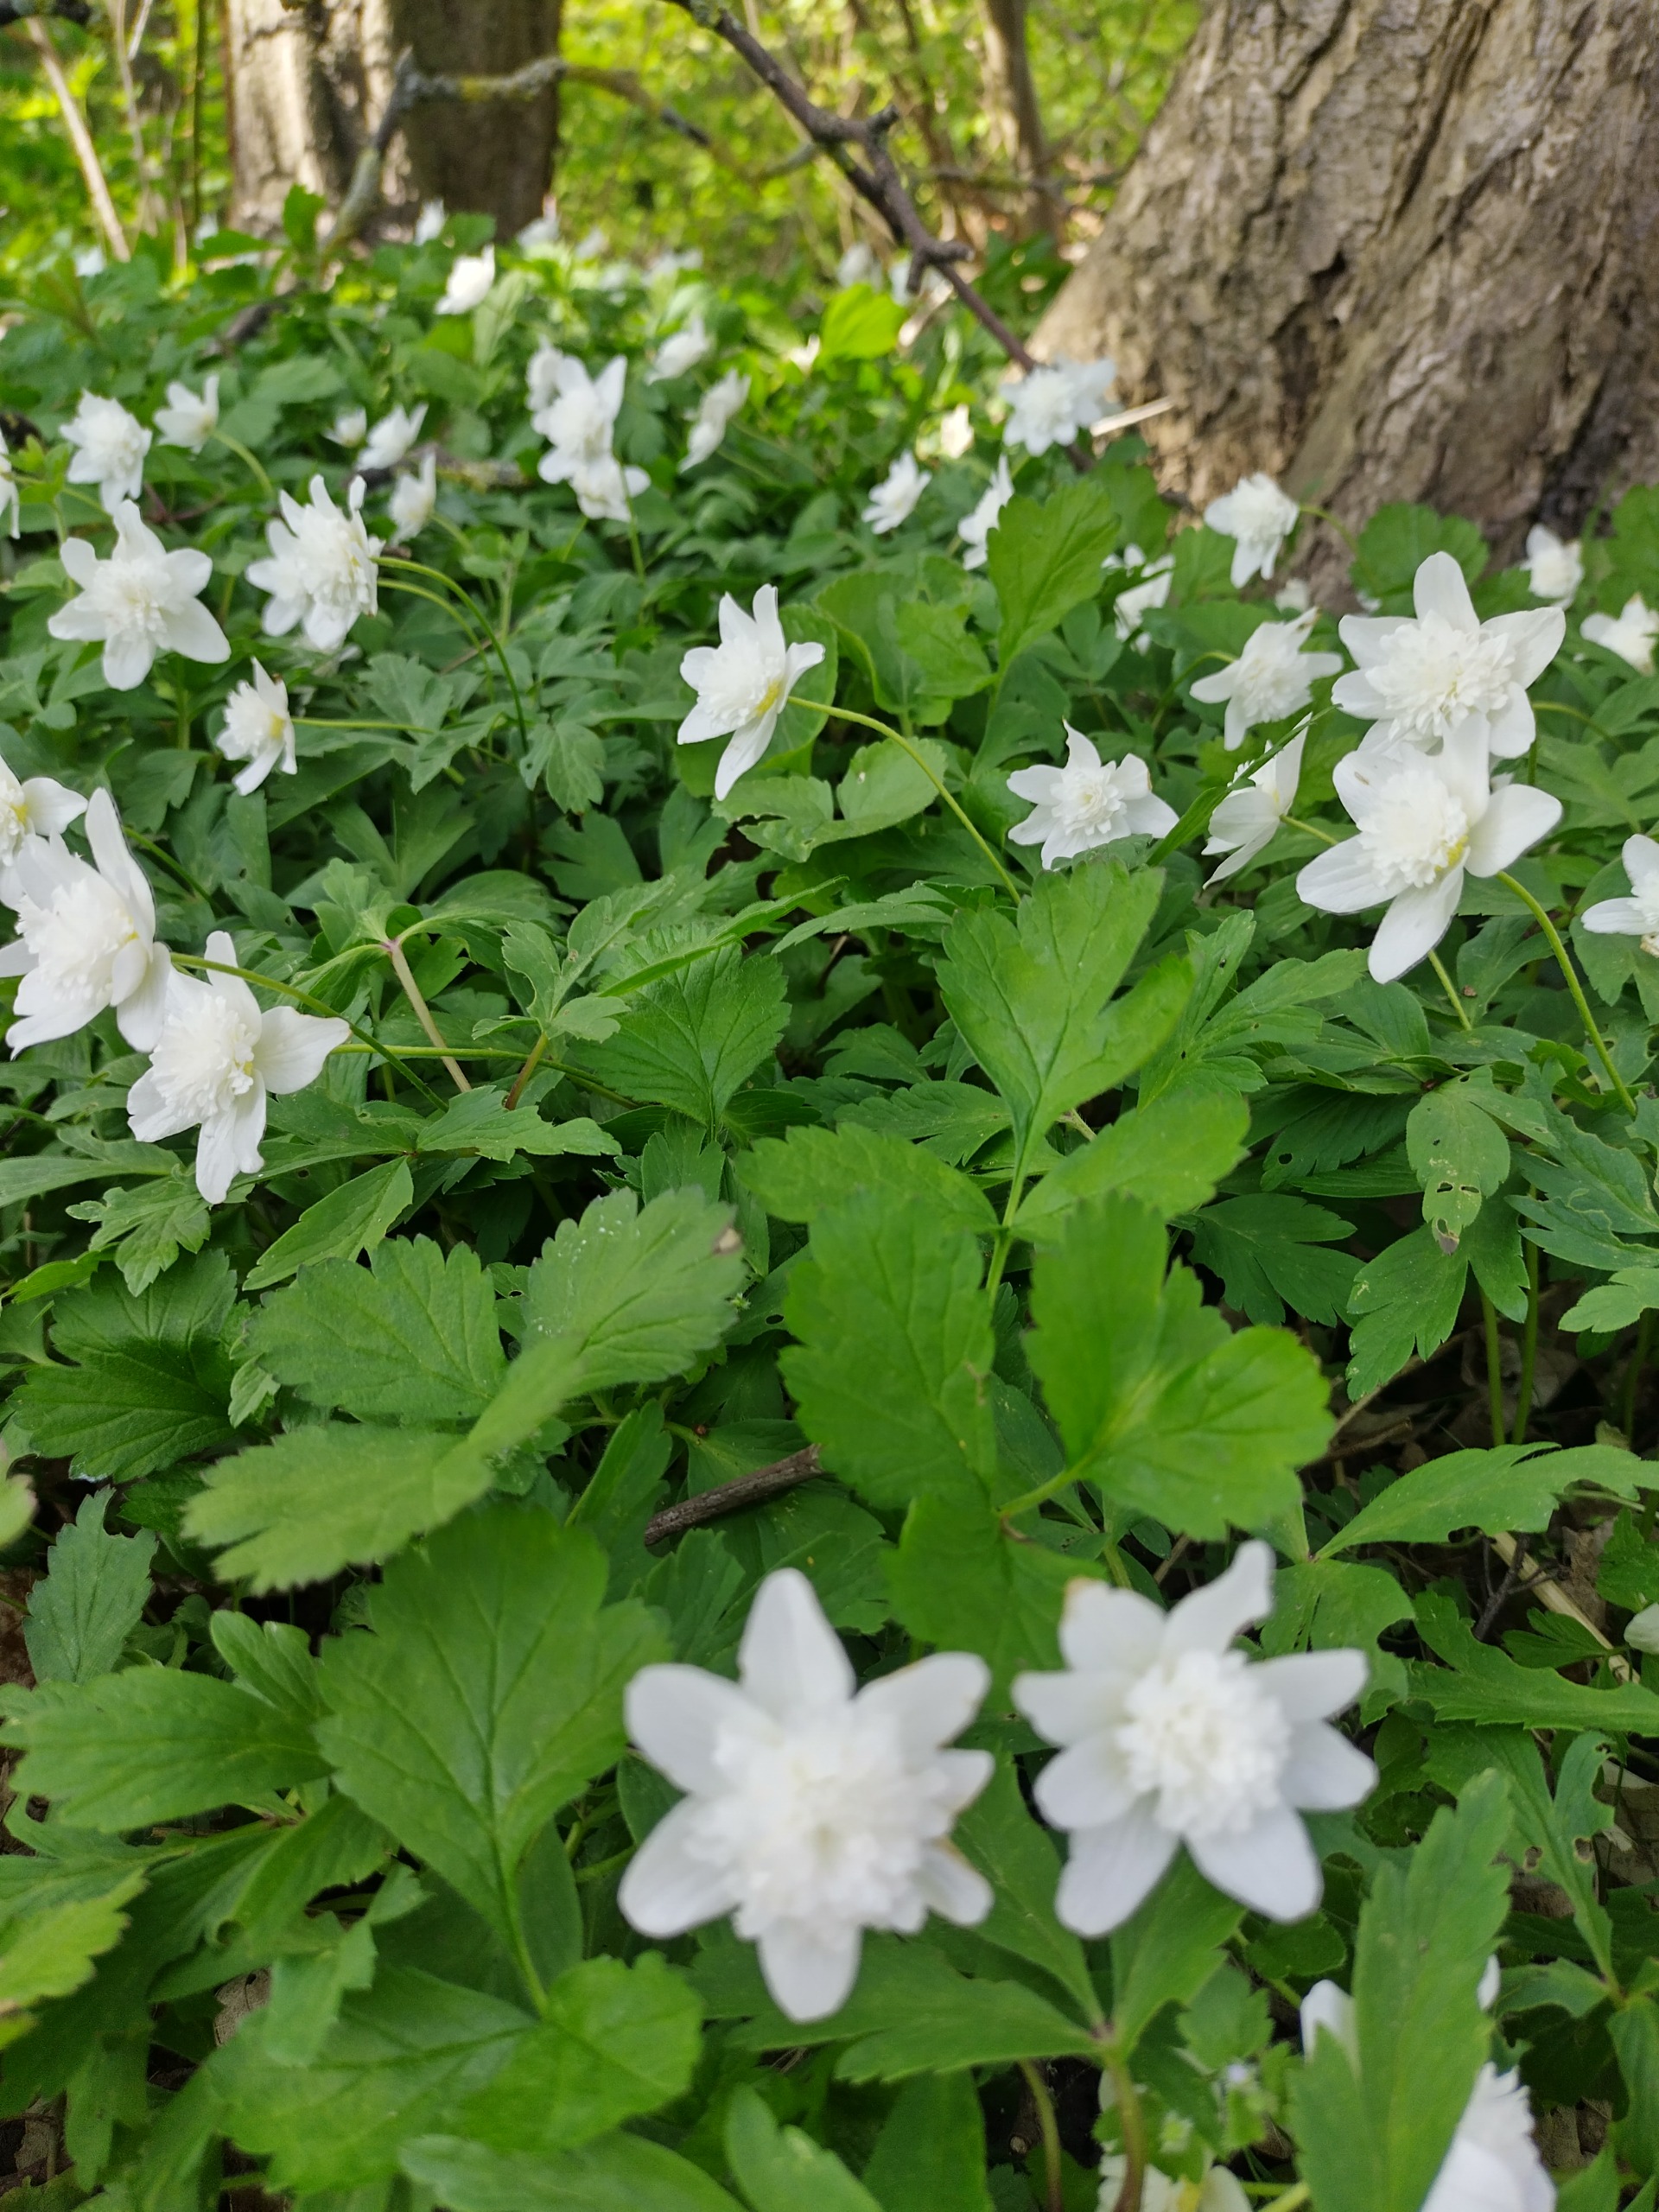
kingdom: Plantae
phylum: Tracheophyta
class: Magnoliopsida
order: Ranunculales
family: Ranunculaceae
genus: Anemone
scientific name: Anemone nemorosa
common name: Hvid anemone
